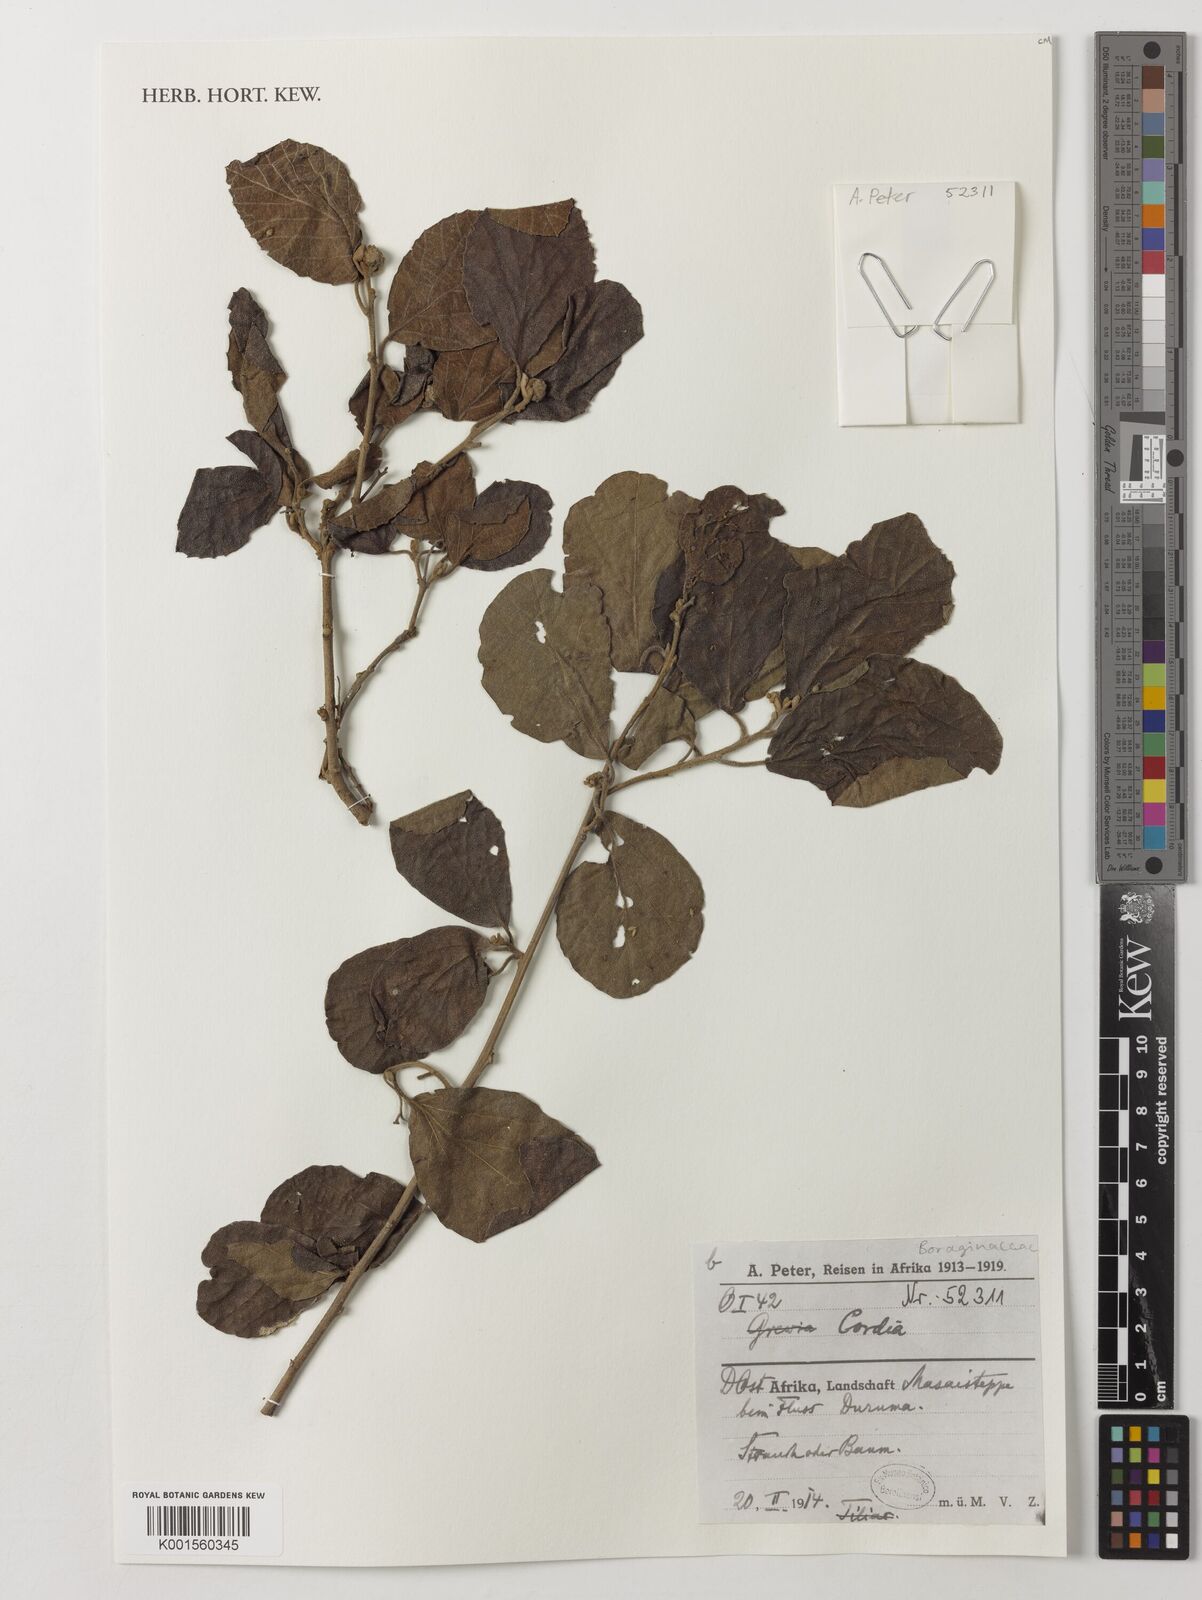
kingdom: Plantae
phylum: Tracheophyta
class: Magnoliopsida
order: Boraginales
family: Cordiaceae
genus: Cordia
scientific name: Cordia
